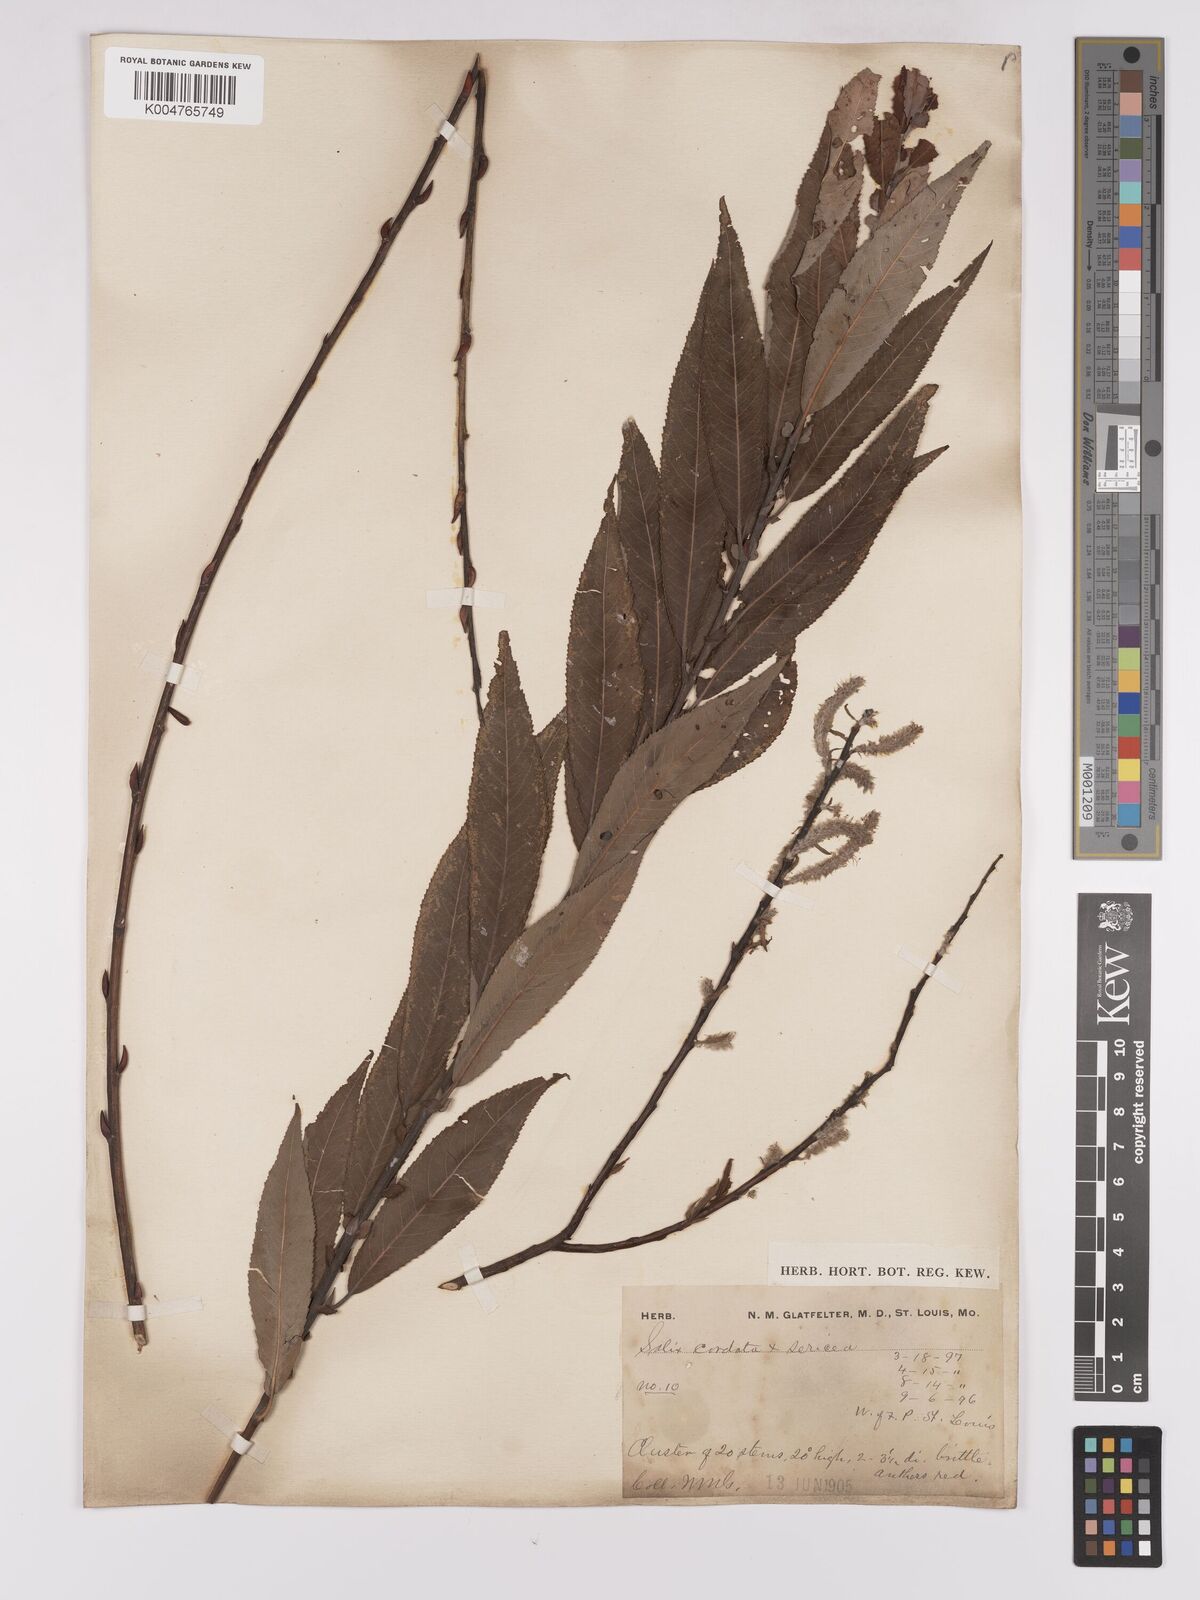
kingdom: Plantae
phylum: Tracheophyta
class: Magnoliopsida
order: Malpighiales
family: Salicaceae
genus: Salix
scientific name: Salix cordata
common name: Heart-leaf willow
